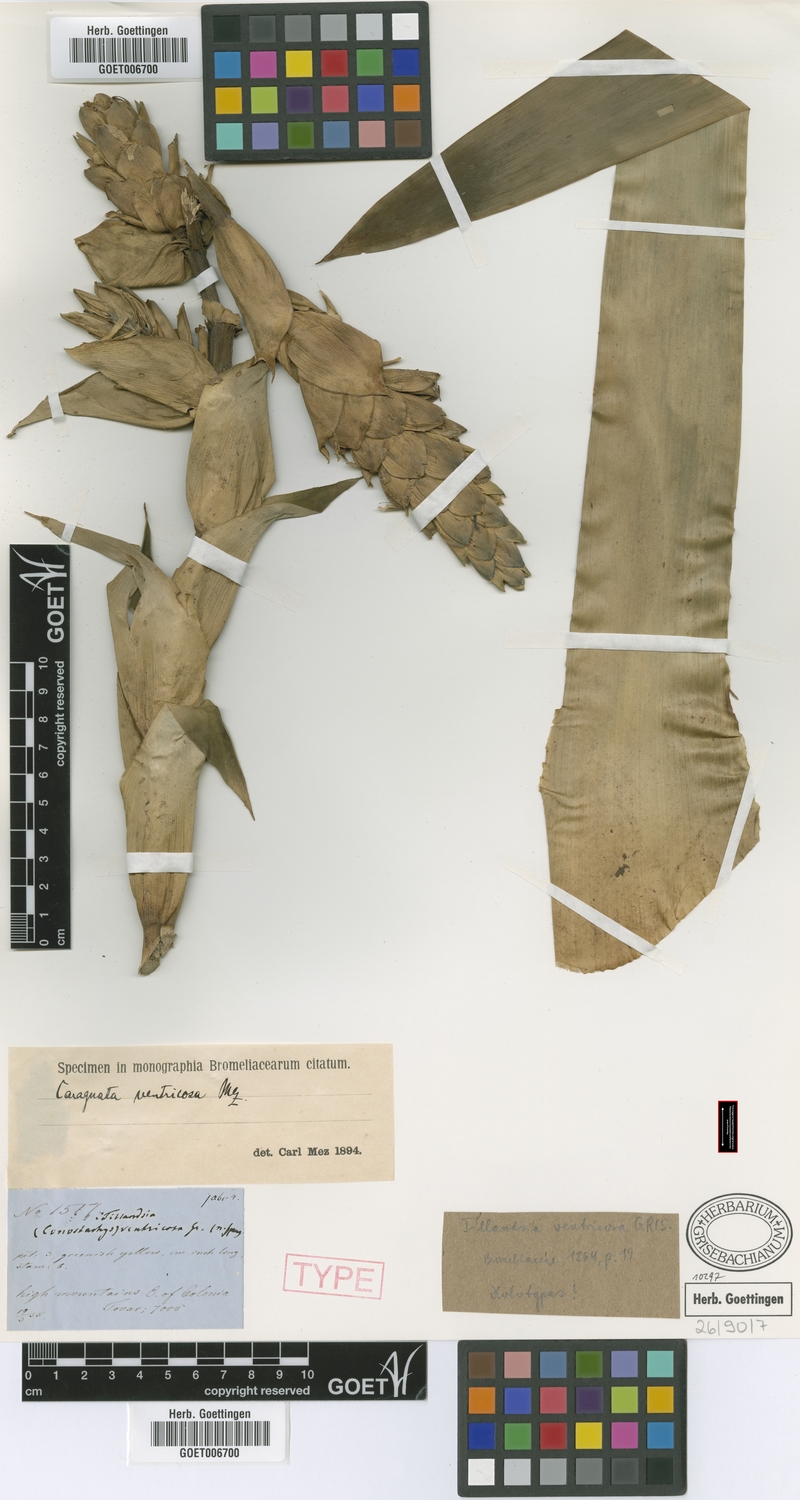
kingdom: Plantae
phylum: Tracheophyta
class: Liliopsida
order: Poales
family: Bromeliaceae
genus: Guzmania
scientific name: Guzmania ventricosa
